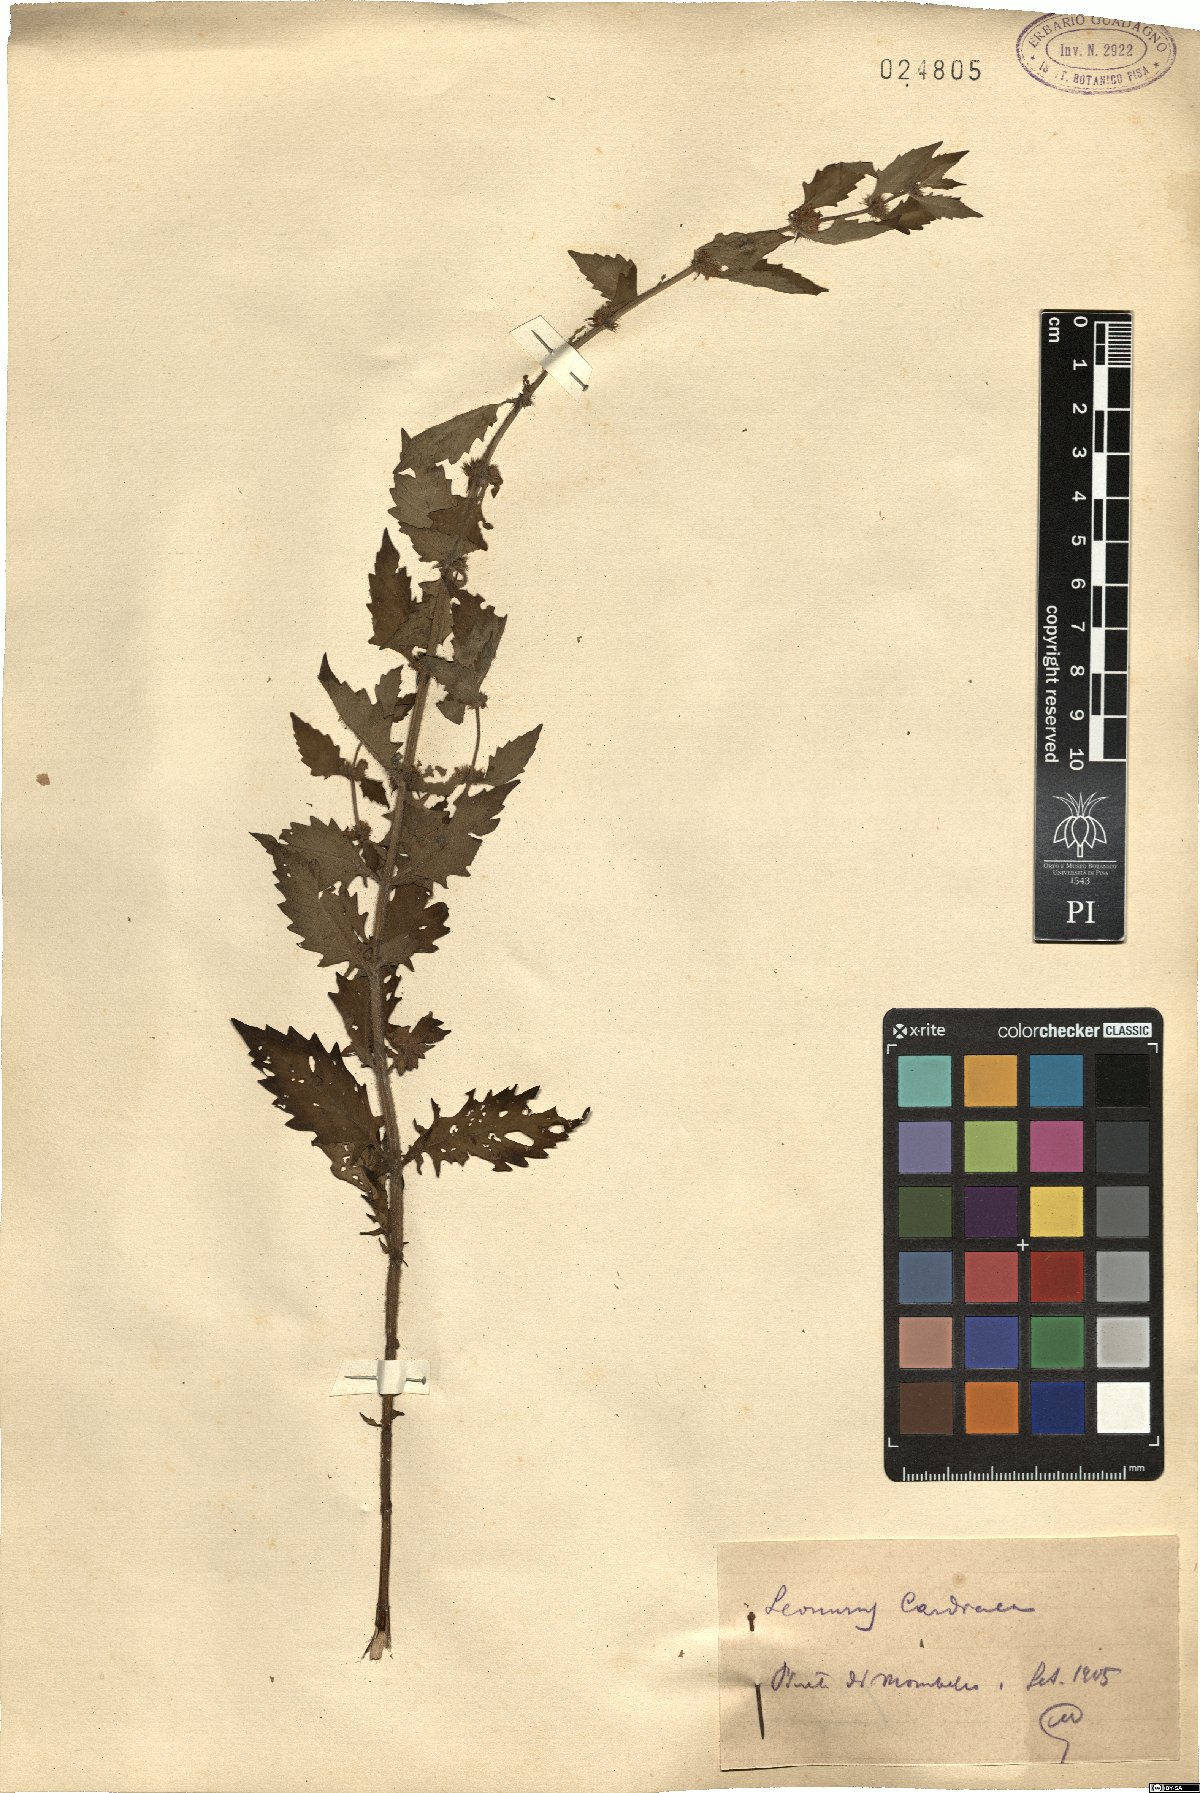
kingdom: Plantae
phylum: Tracheophyta
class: Magnoliopsida
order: Lamiales
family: Lamiaceae
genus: Leonurus
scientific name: Leonurus cardiaca
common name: Motherwort
